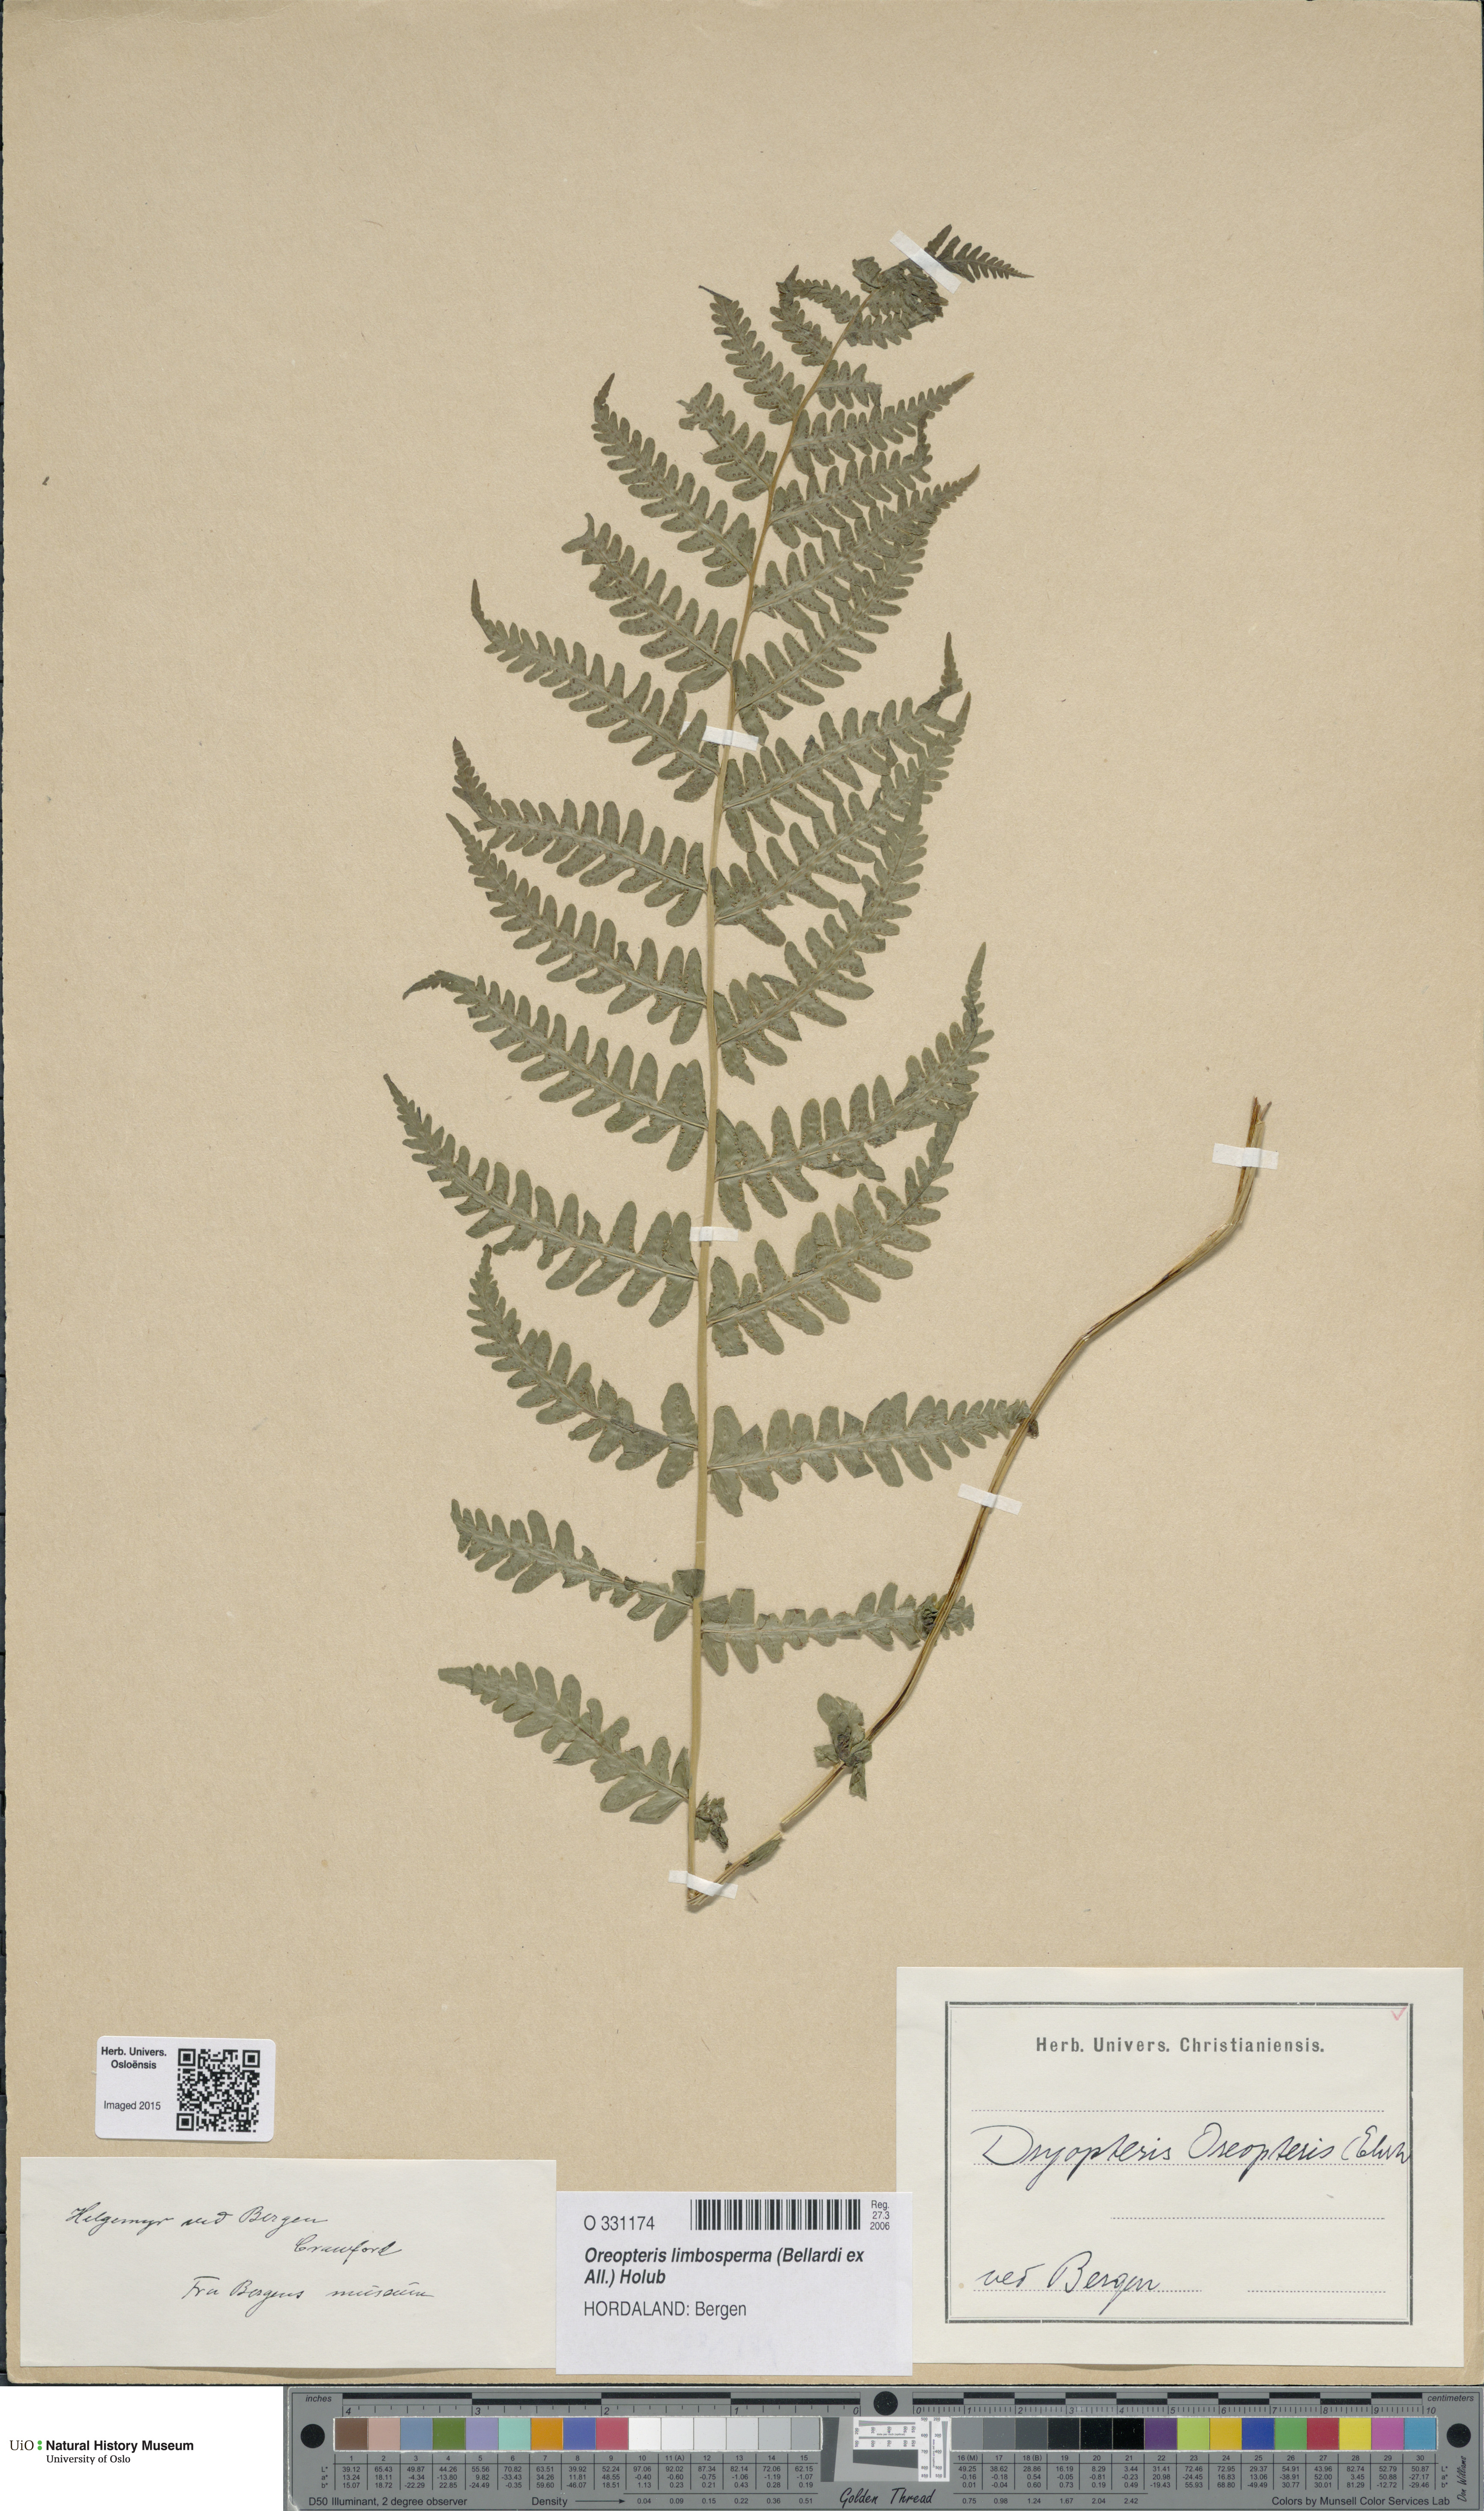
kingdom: Plantae
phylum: Tracheophyta
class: Polypodiopsida
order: Polypodiales
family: Thelypteridaceae
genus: Oreopteris
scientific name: Oreopteris limbosperma
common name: Lemon-scented fern
